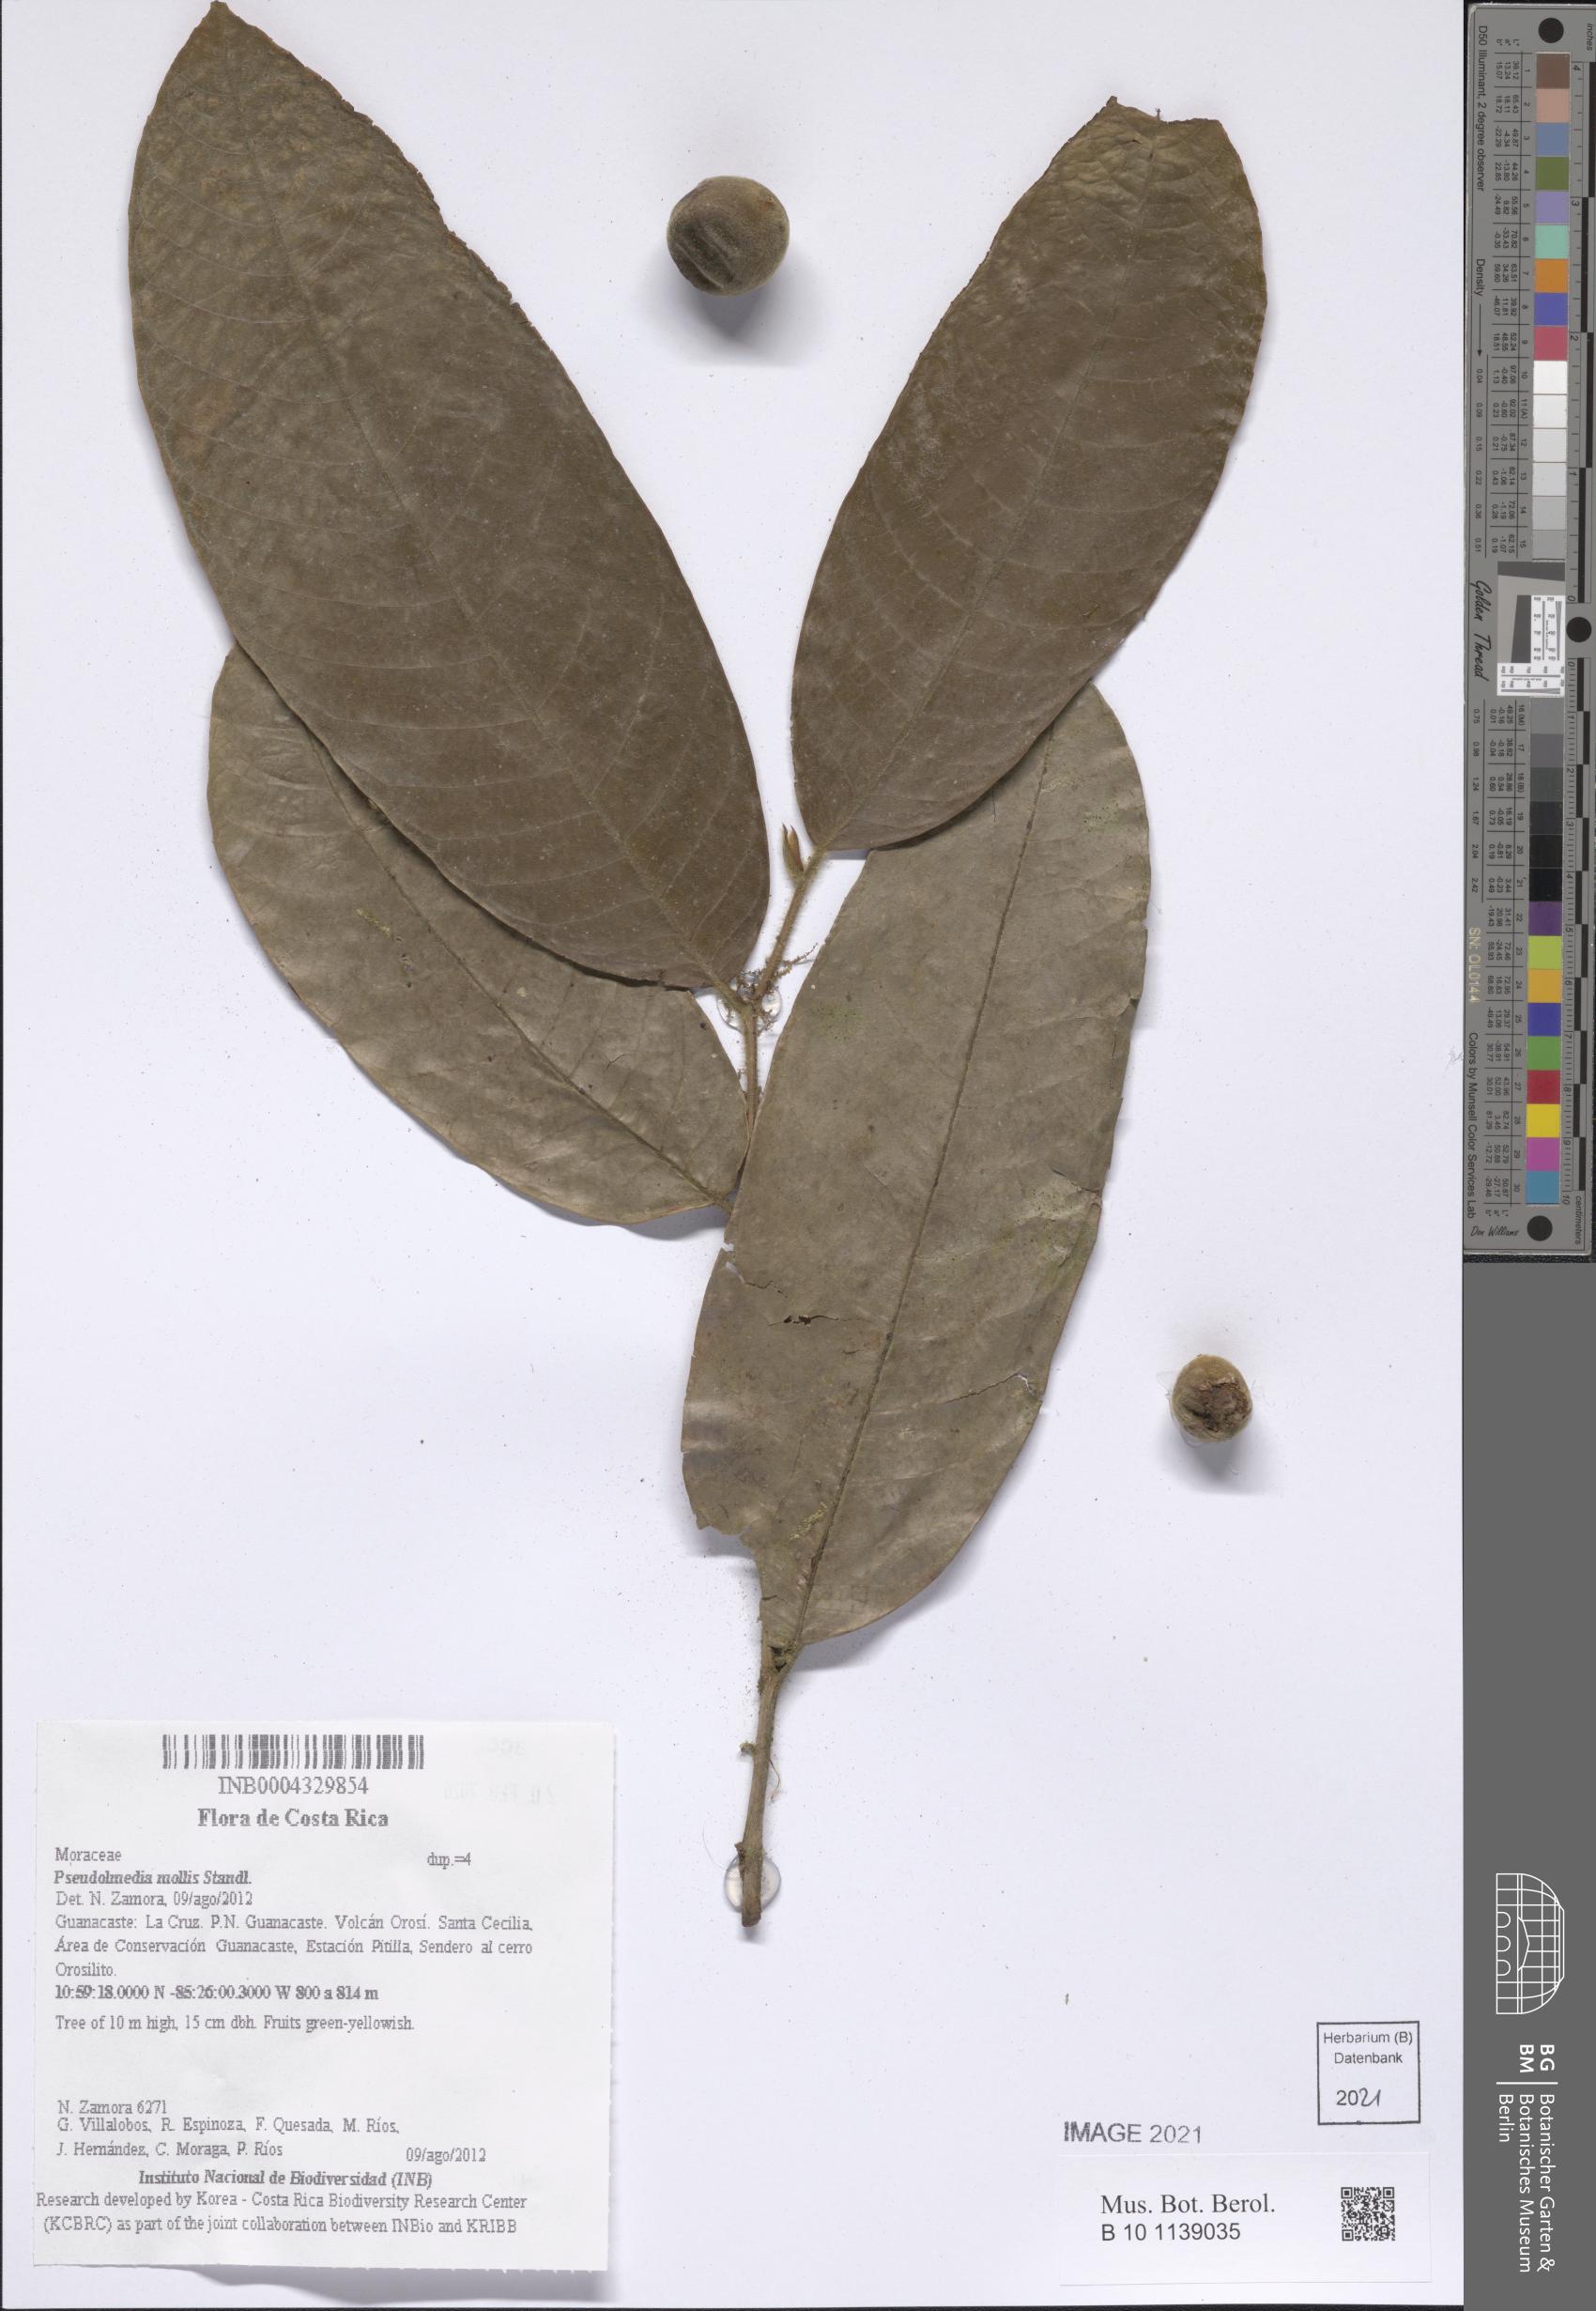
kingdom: Plantae
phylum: Tracheophyta
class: Magnoliopsida
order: Rosales
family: Moraceae
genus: Pseudolmedia
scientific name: Pseudolmedia glabrata
